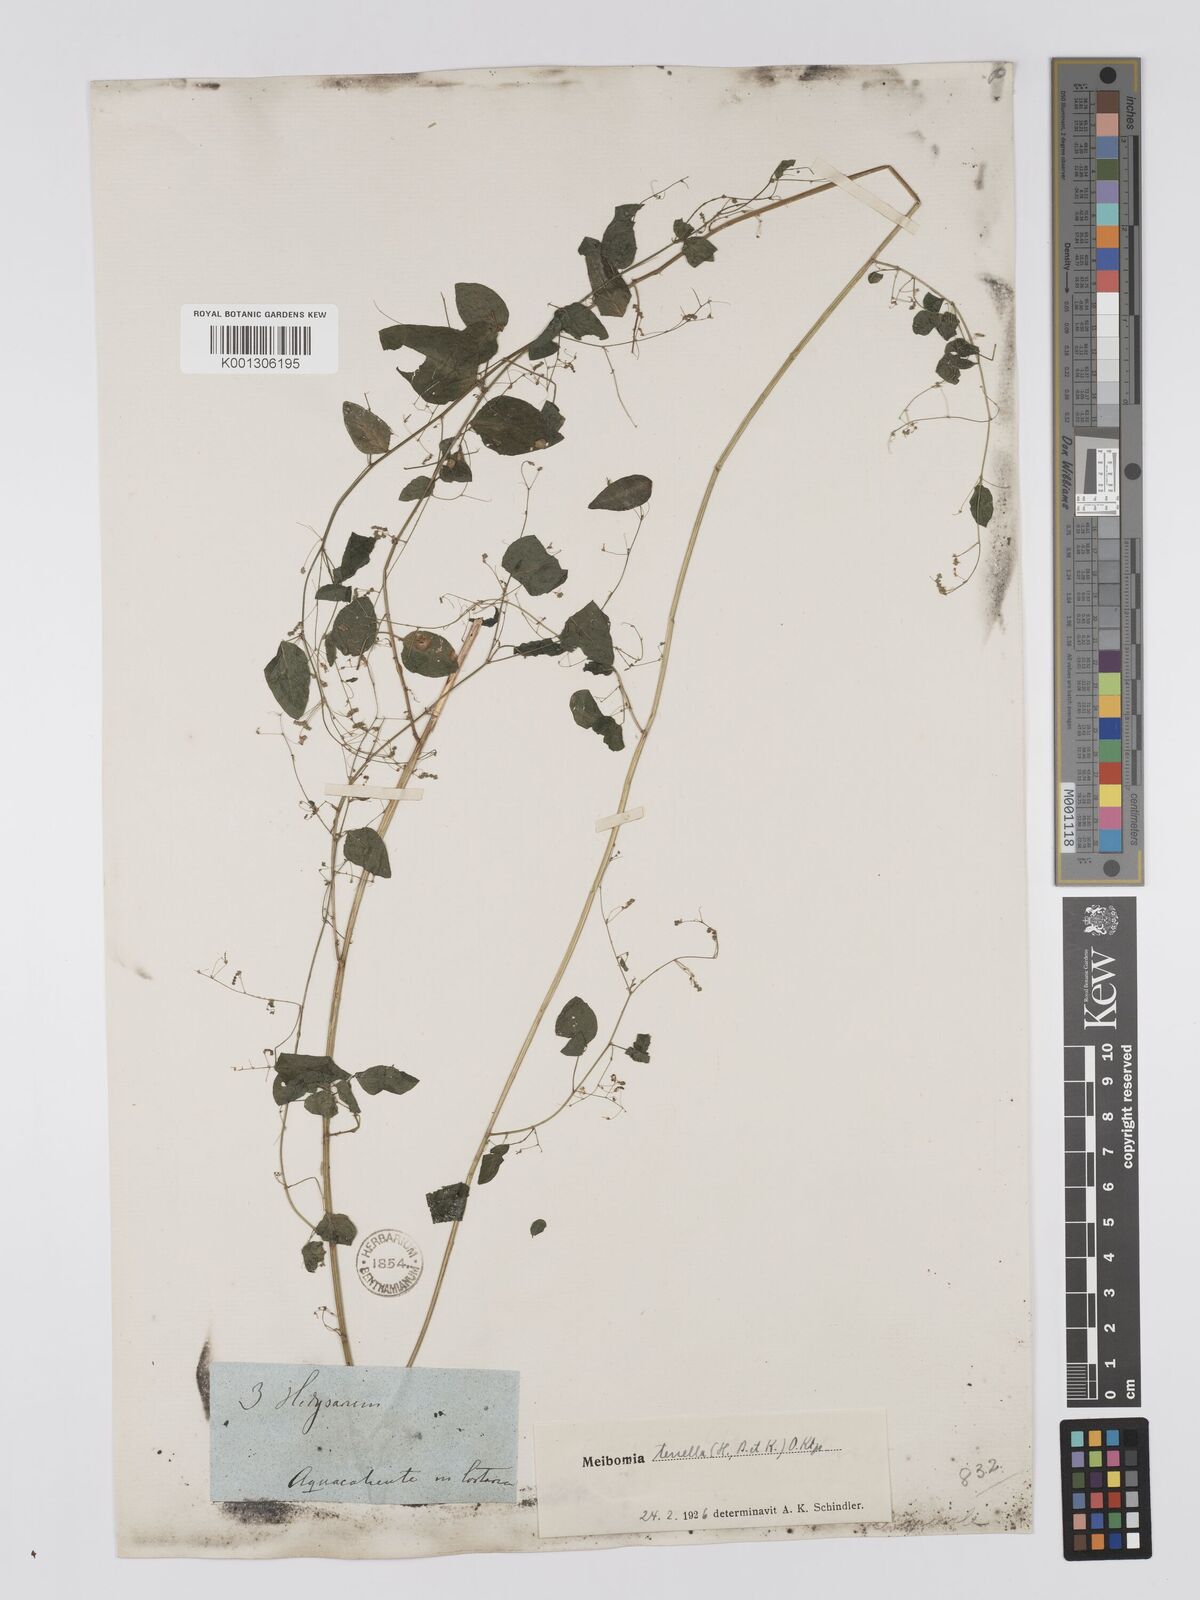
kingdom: Plantae
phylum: Tracheophyta
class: Magnoliopsida
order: Fabales
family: Fabaceae
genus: Desmodium
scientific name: Desmodium procumbens
